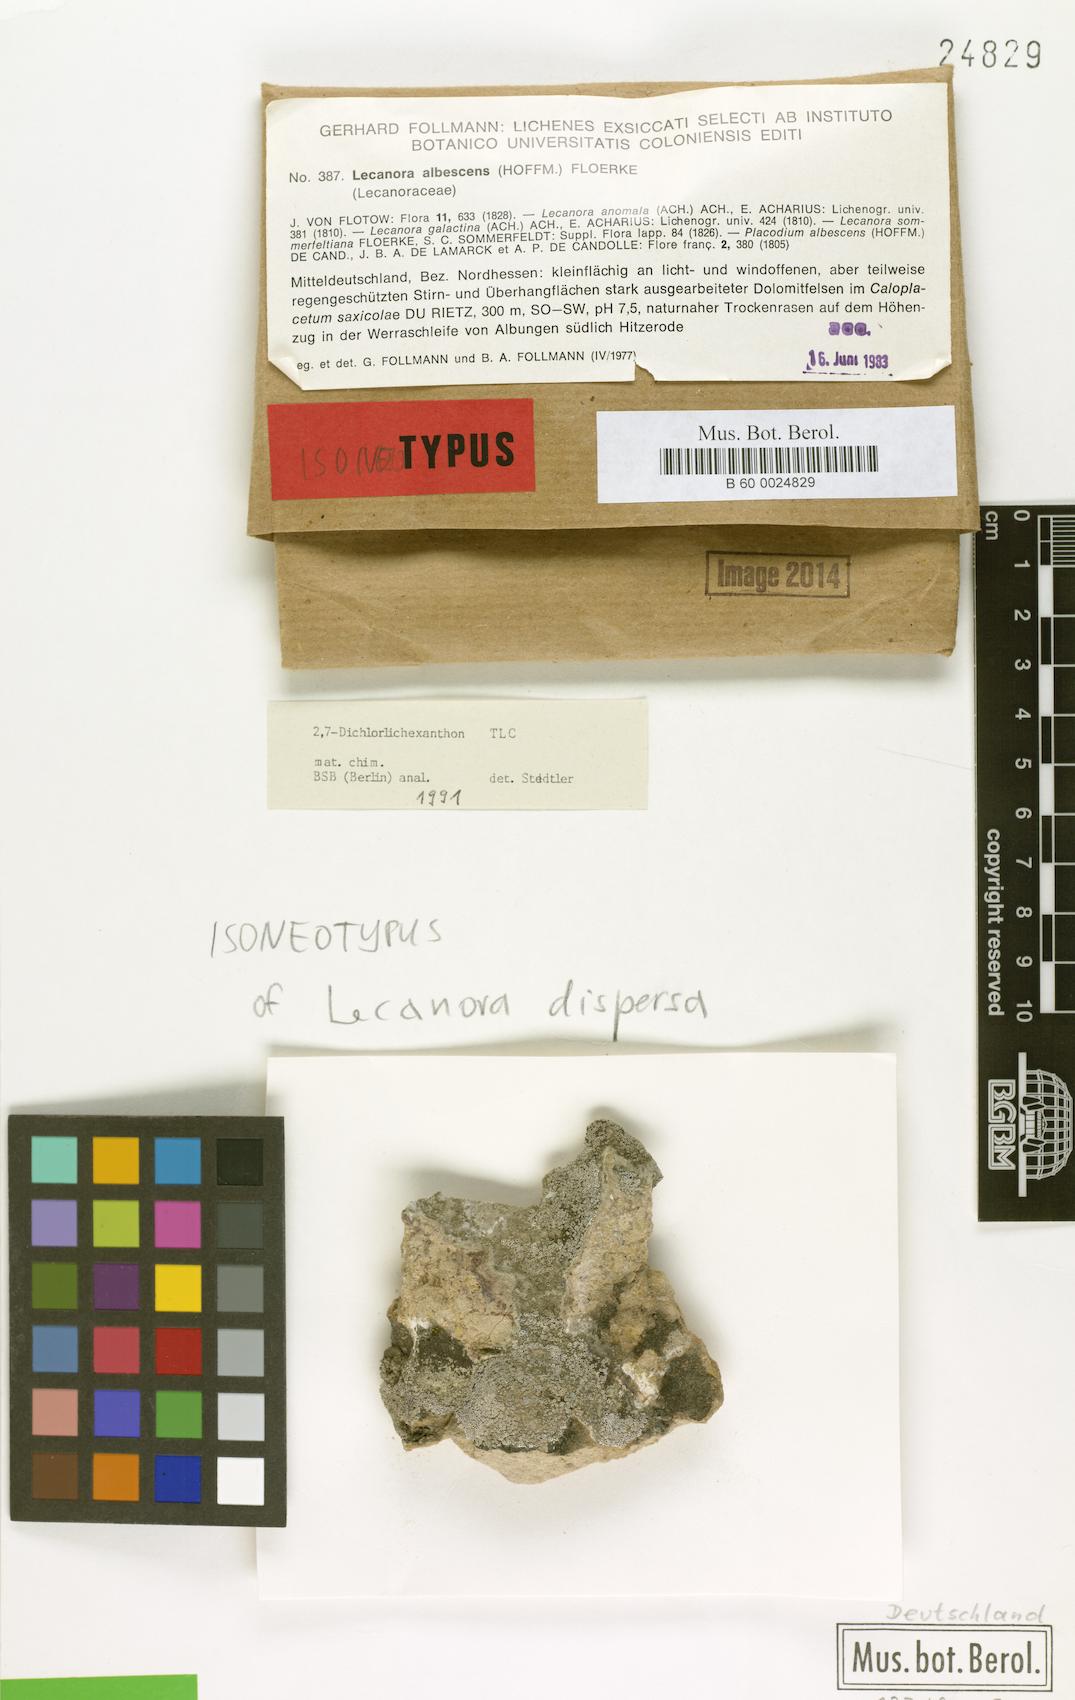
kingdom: Fungi
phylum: Ascomycota
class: Lecanoromycetes
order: Lecanorales
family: Lecanoraceae
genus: Polyozosia
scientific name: Polyozosia dispersa
